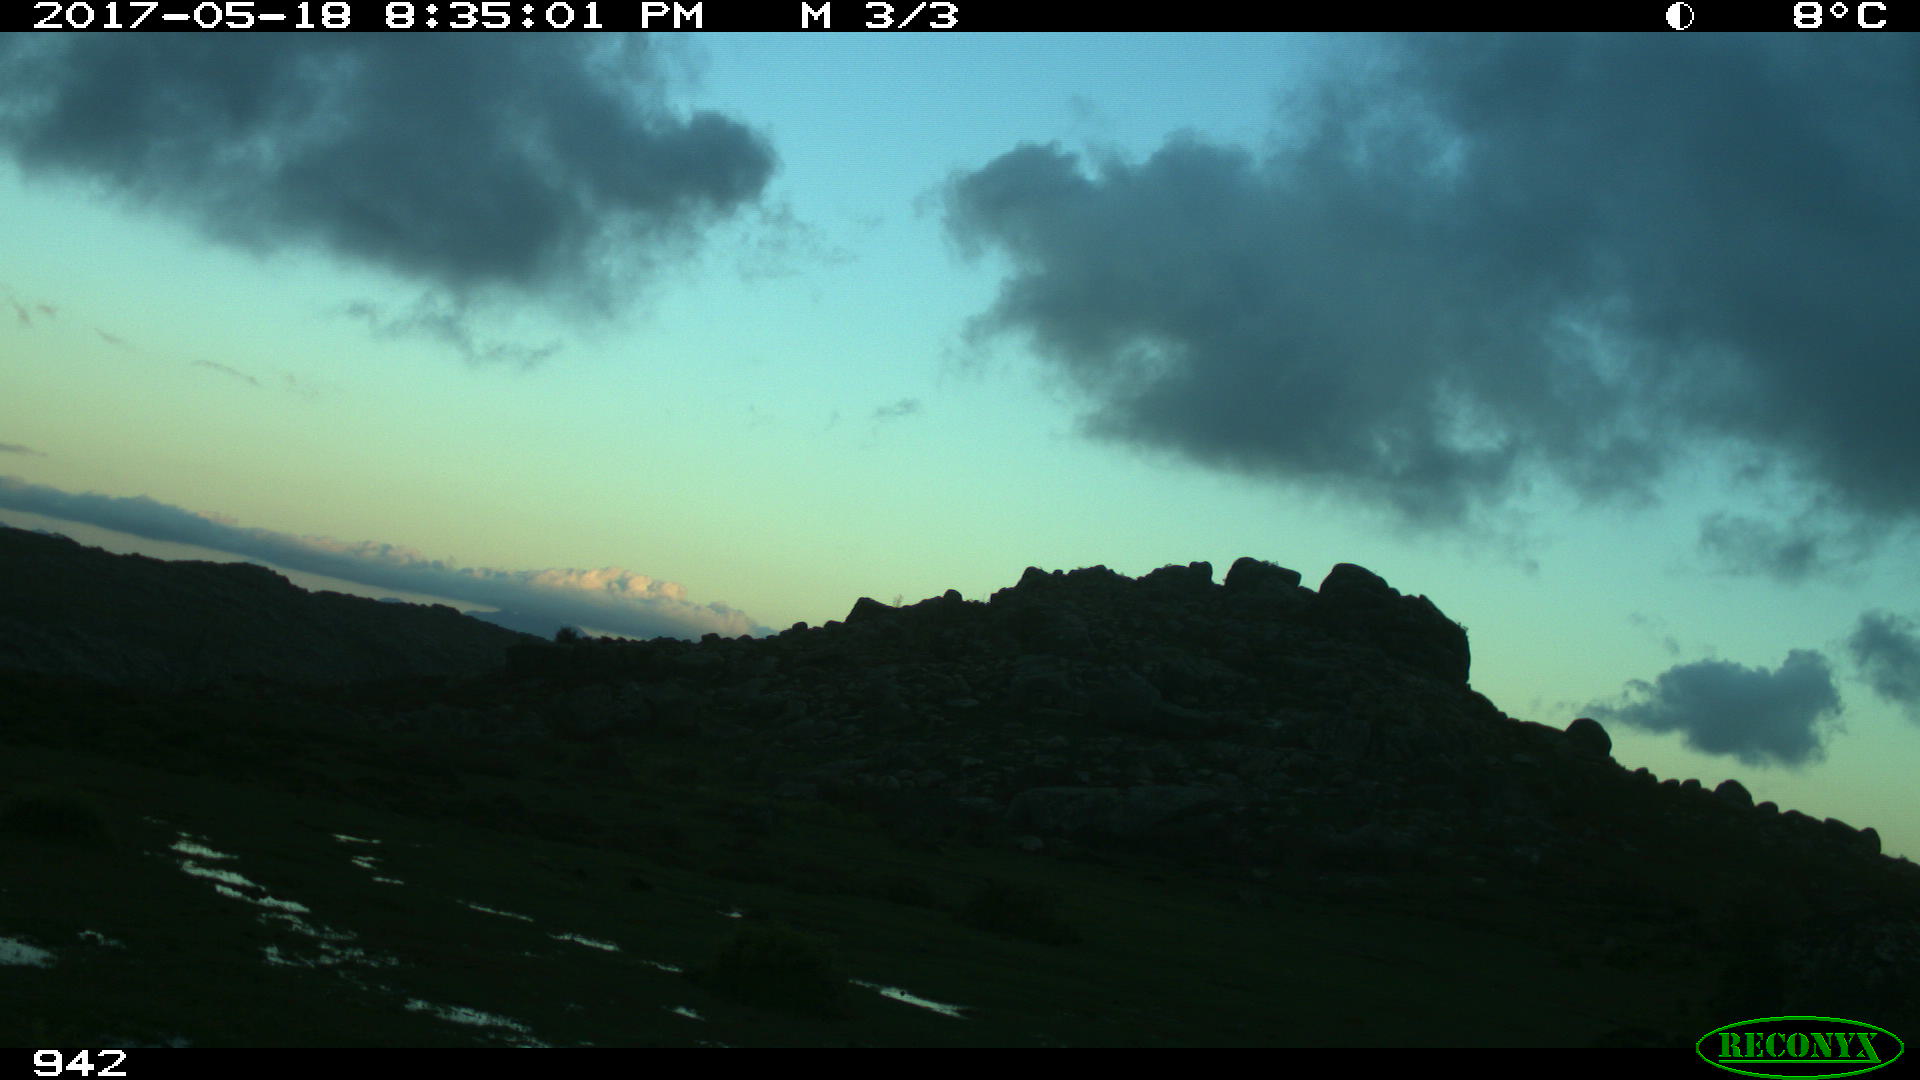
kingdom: Animalia
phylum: Chordata
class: Mammalia
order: Artiodactyla
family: Bovidae
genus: Bos
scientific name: Bos taurus
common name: Domesticated cattle
